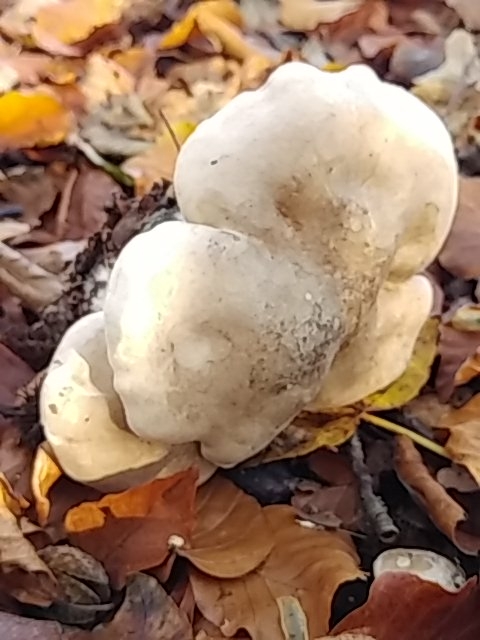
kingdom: Fungi
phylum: Basidiomycota
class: Agaricomycetes
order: Agaricales
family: Tricholomataceae
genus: Clitocybe
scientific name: Clitocybe nebularis
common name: tåge-tragthat
